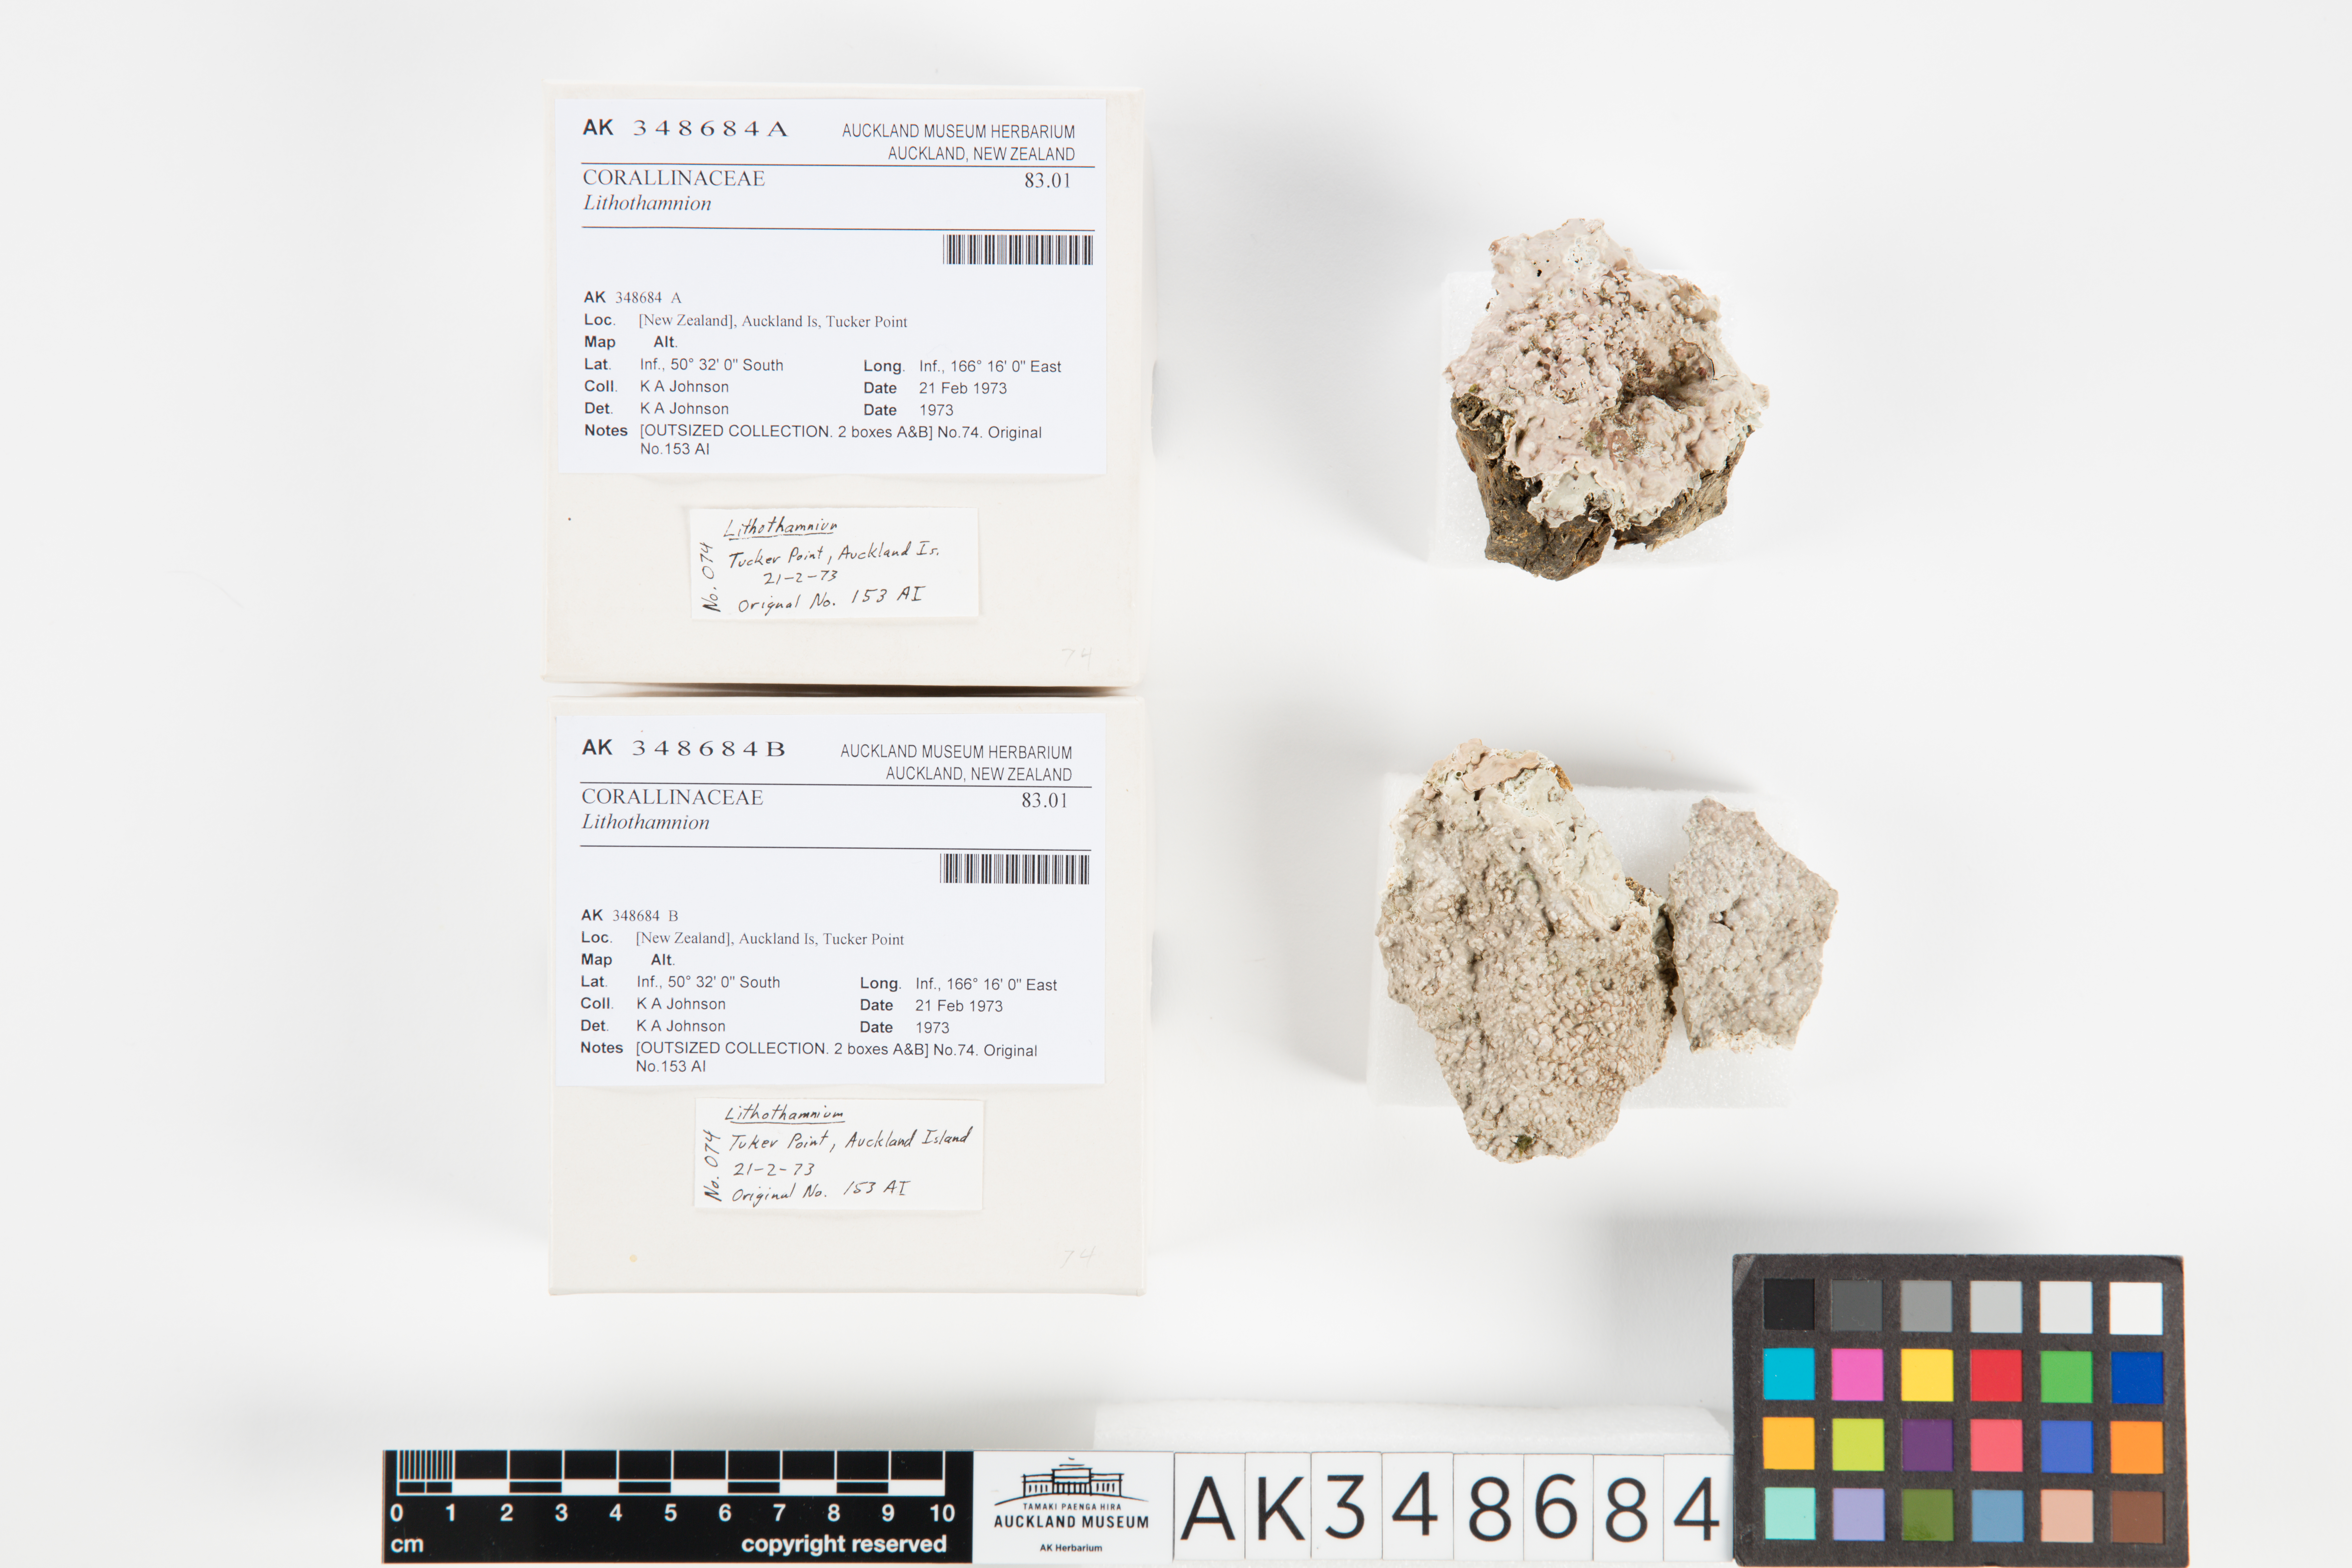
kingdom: Plantae
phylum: Rhodophyta
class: Florideophyceae
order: Corallinales
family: Hapalidiaceae
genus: Lithothamnion
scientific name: Lithothamnion
